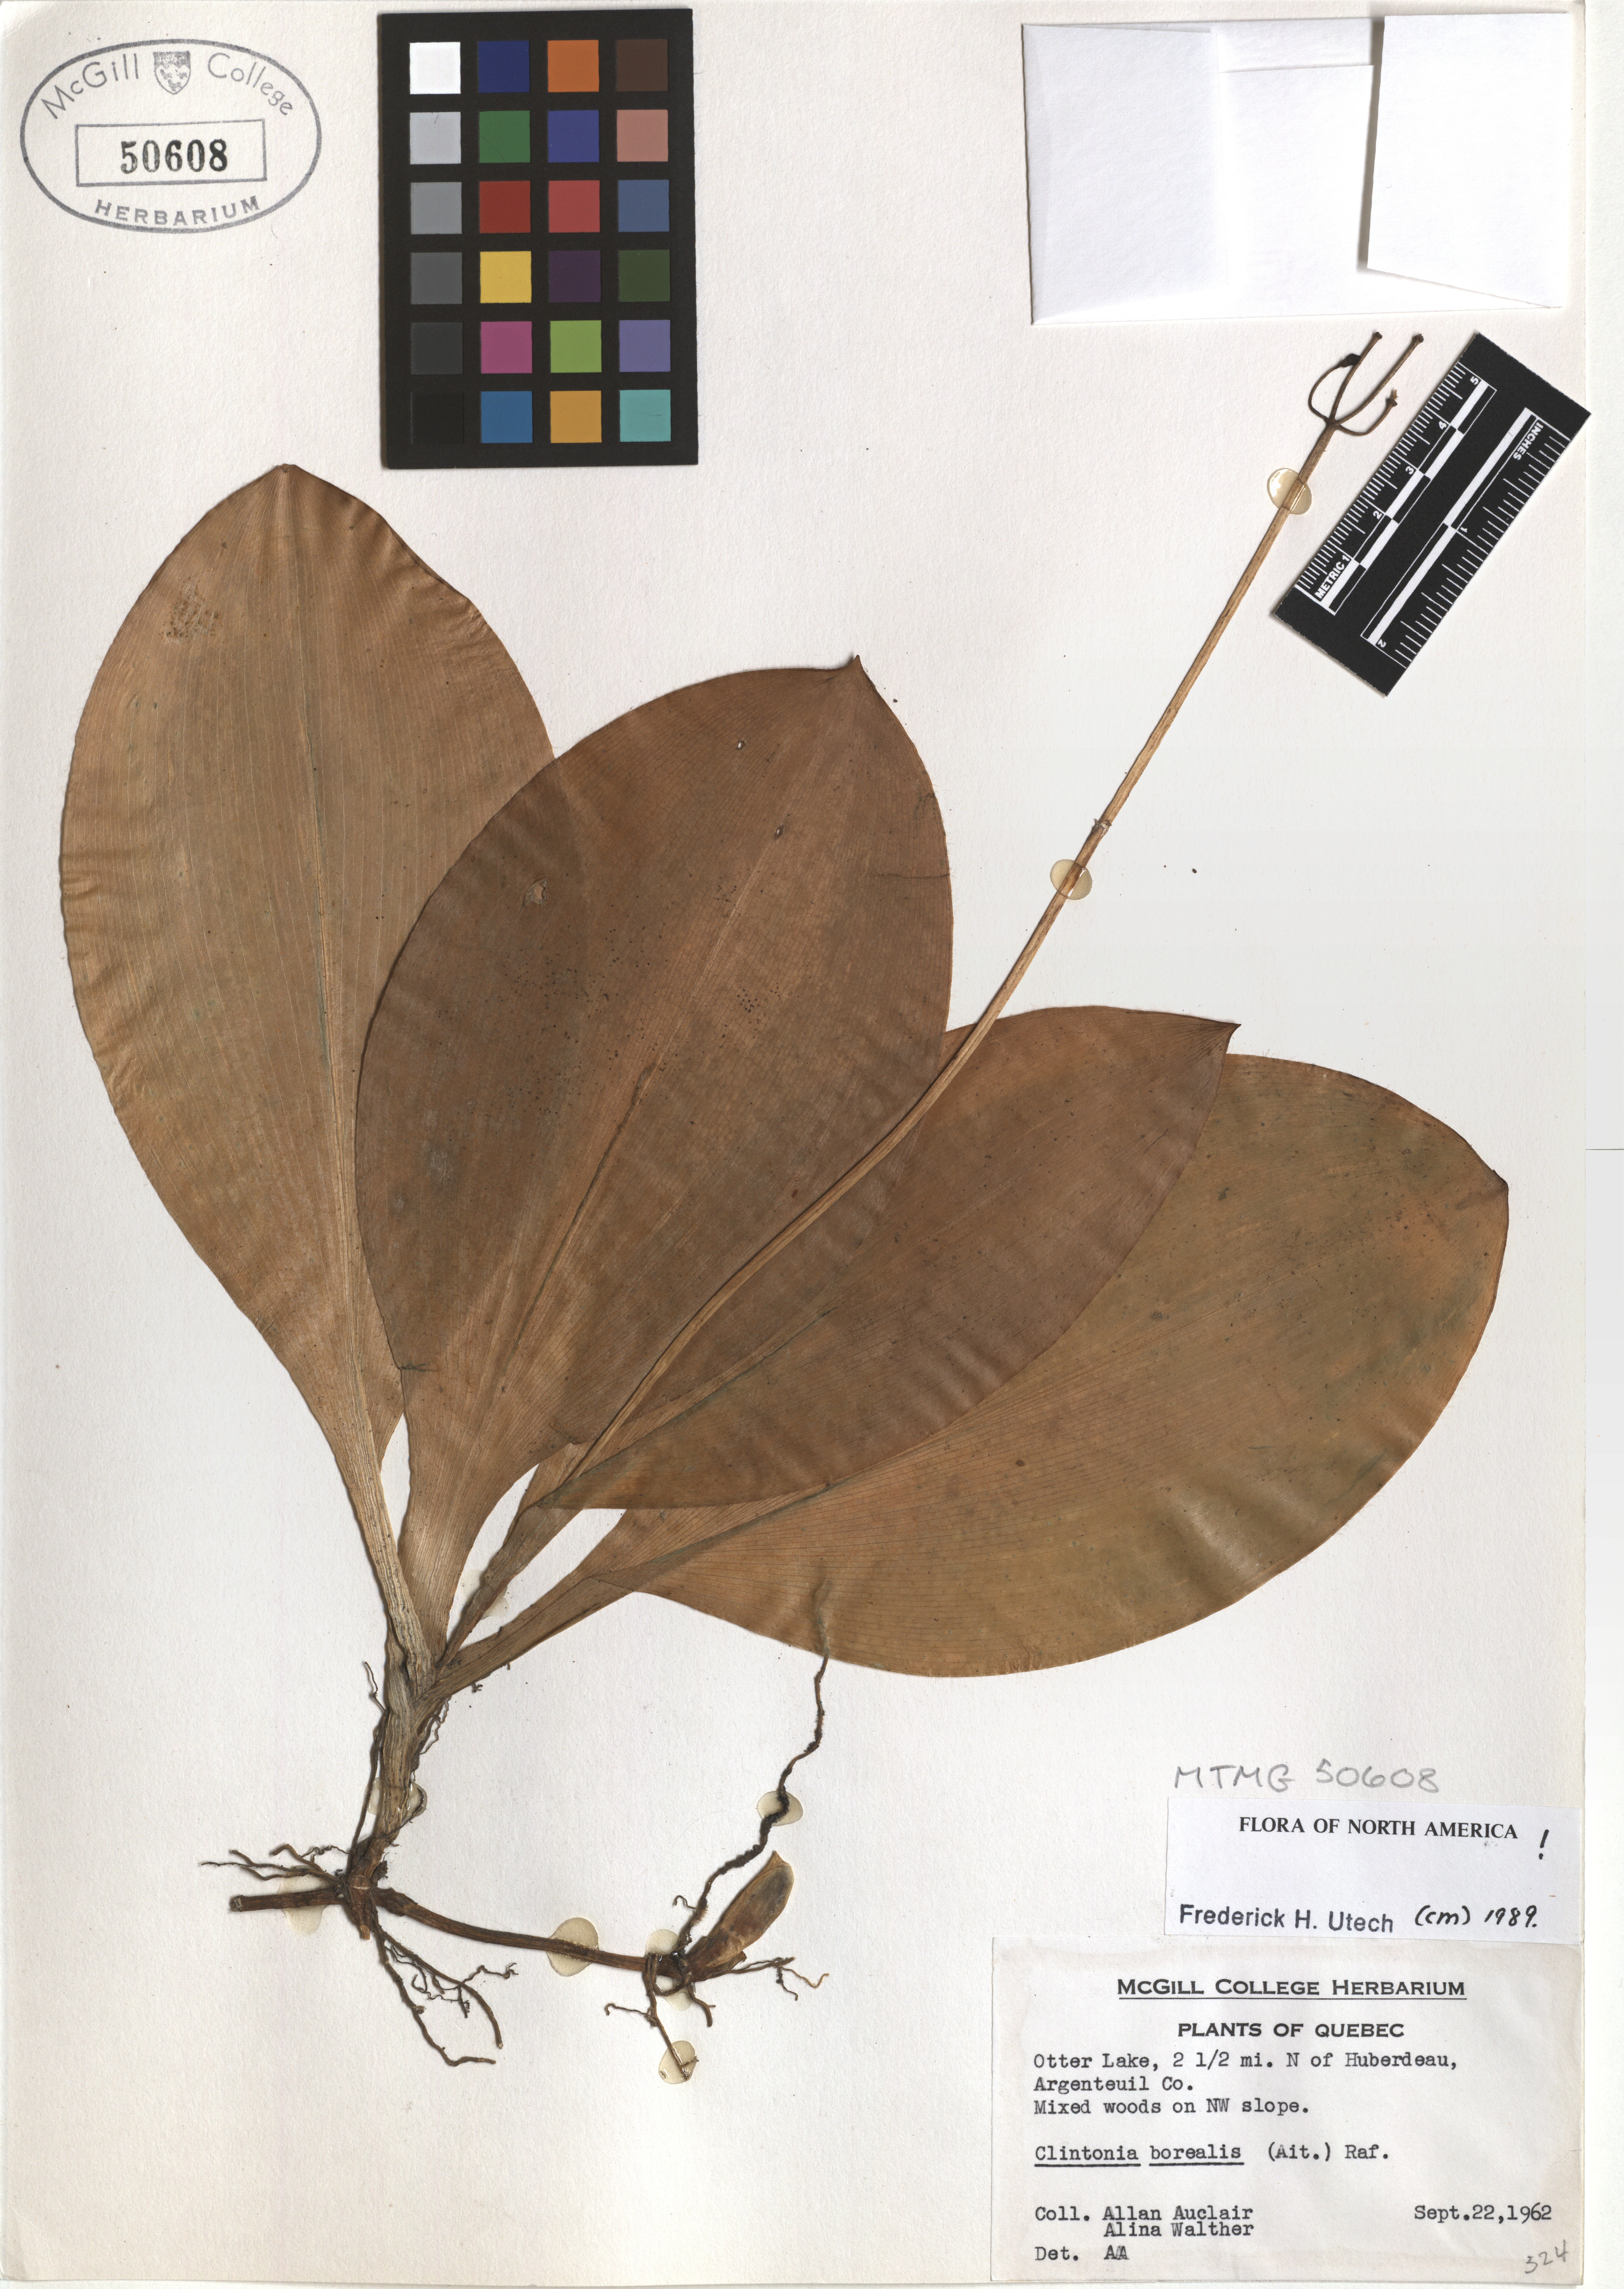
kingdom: Plantae
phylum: Tracheophyta
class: Liliopsida
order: Liliales
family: Liliaceae
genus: Clintonia
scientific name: Clintonia borealis
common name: Yellow clintonia
